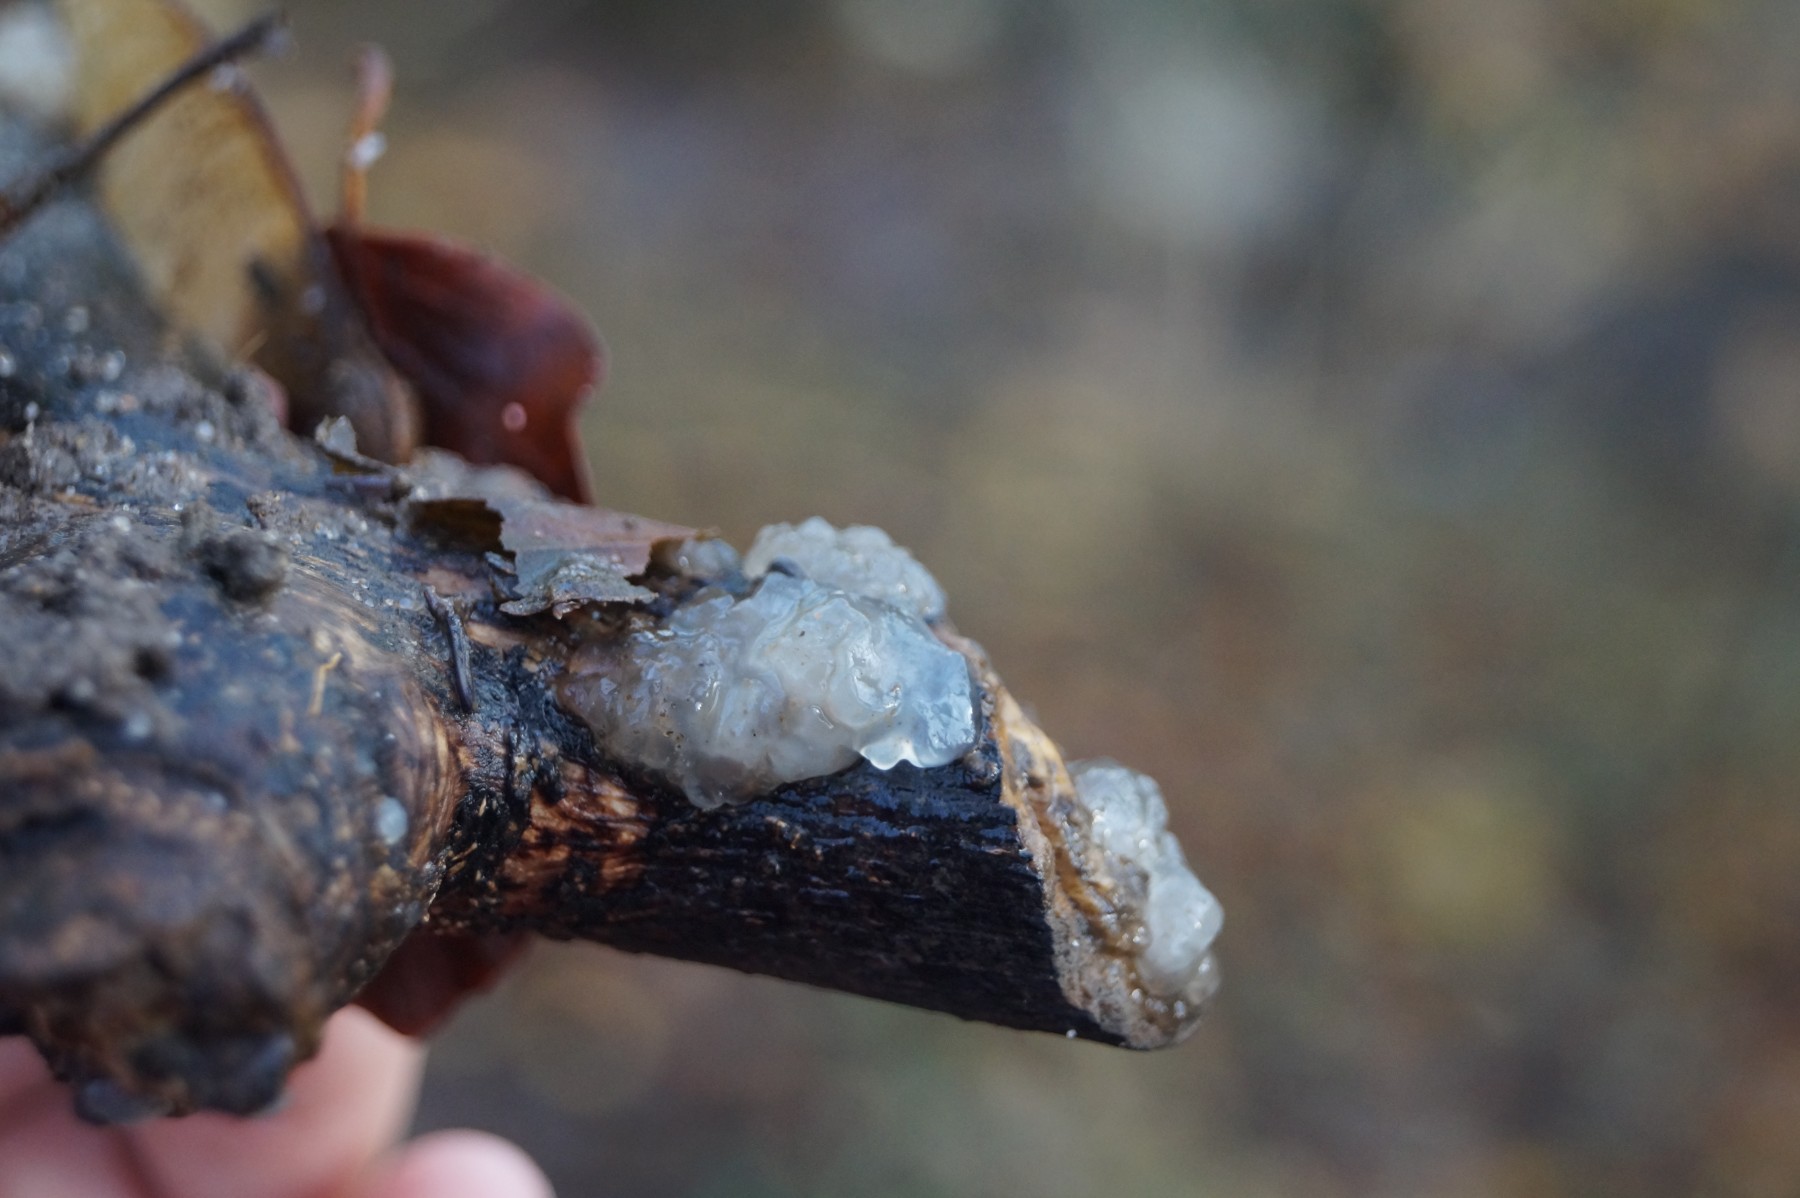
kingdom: Fungi
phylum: Basidiomycota
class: Agaricomycetes
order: Auriculariales
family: Hyaloriaceae
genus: Myxarium
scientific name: Myxarium nucleatum
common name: klar bævretop
